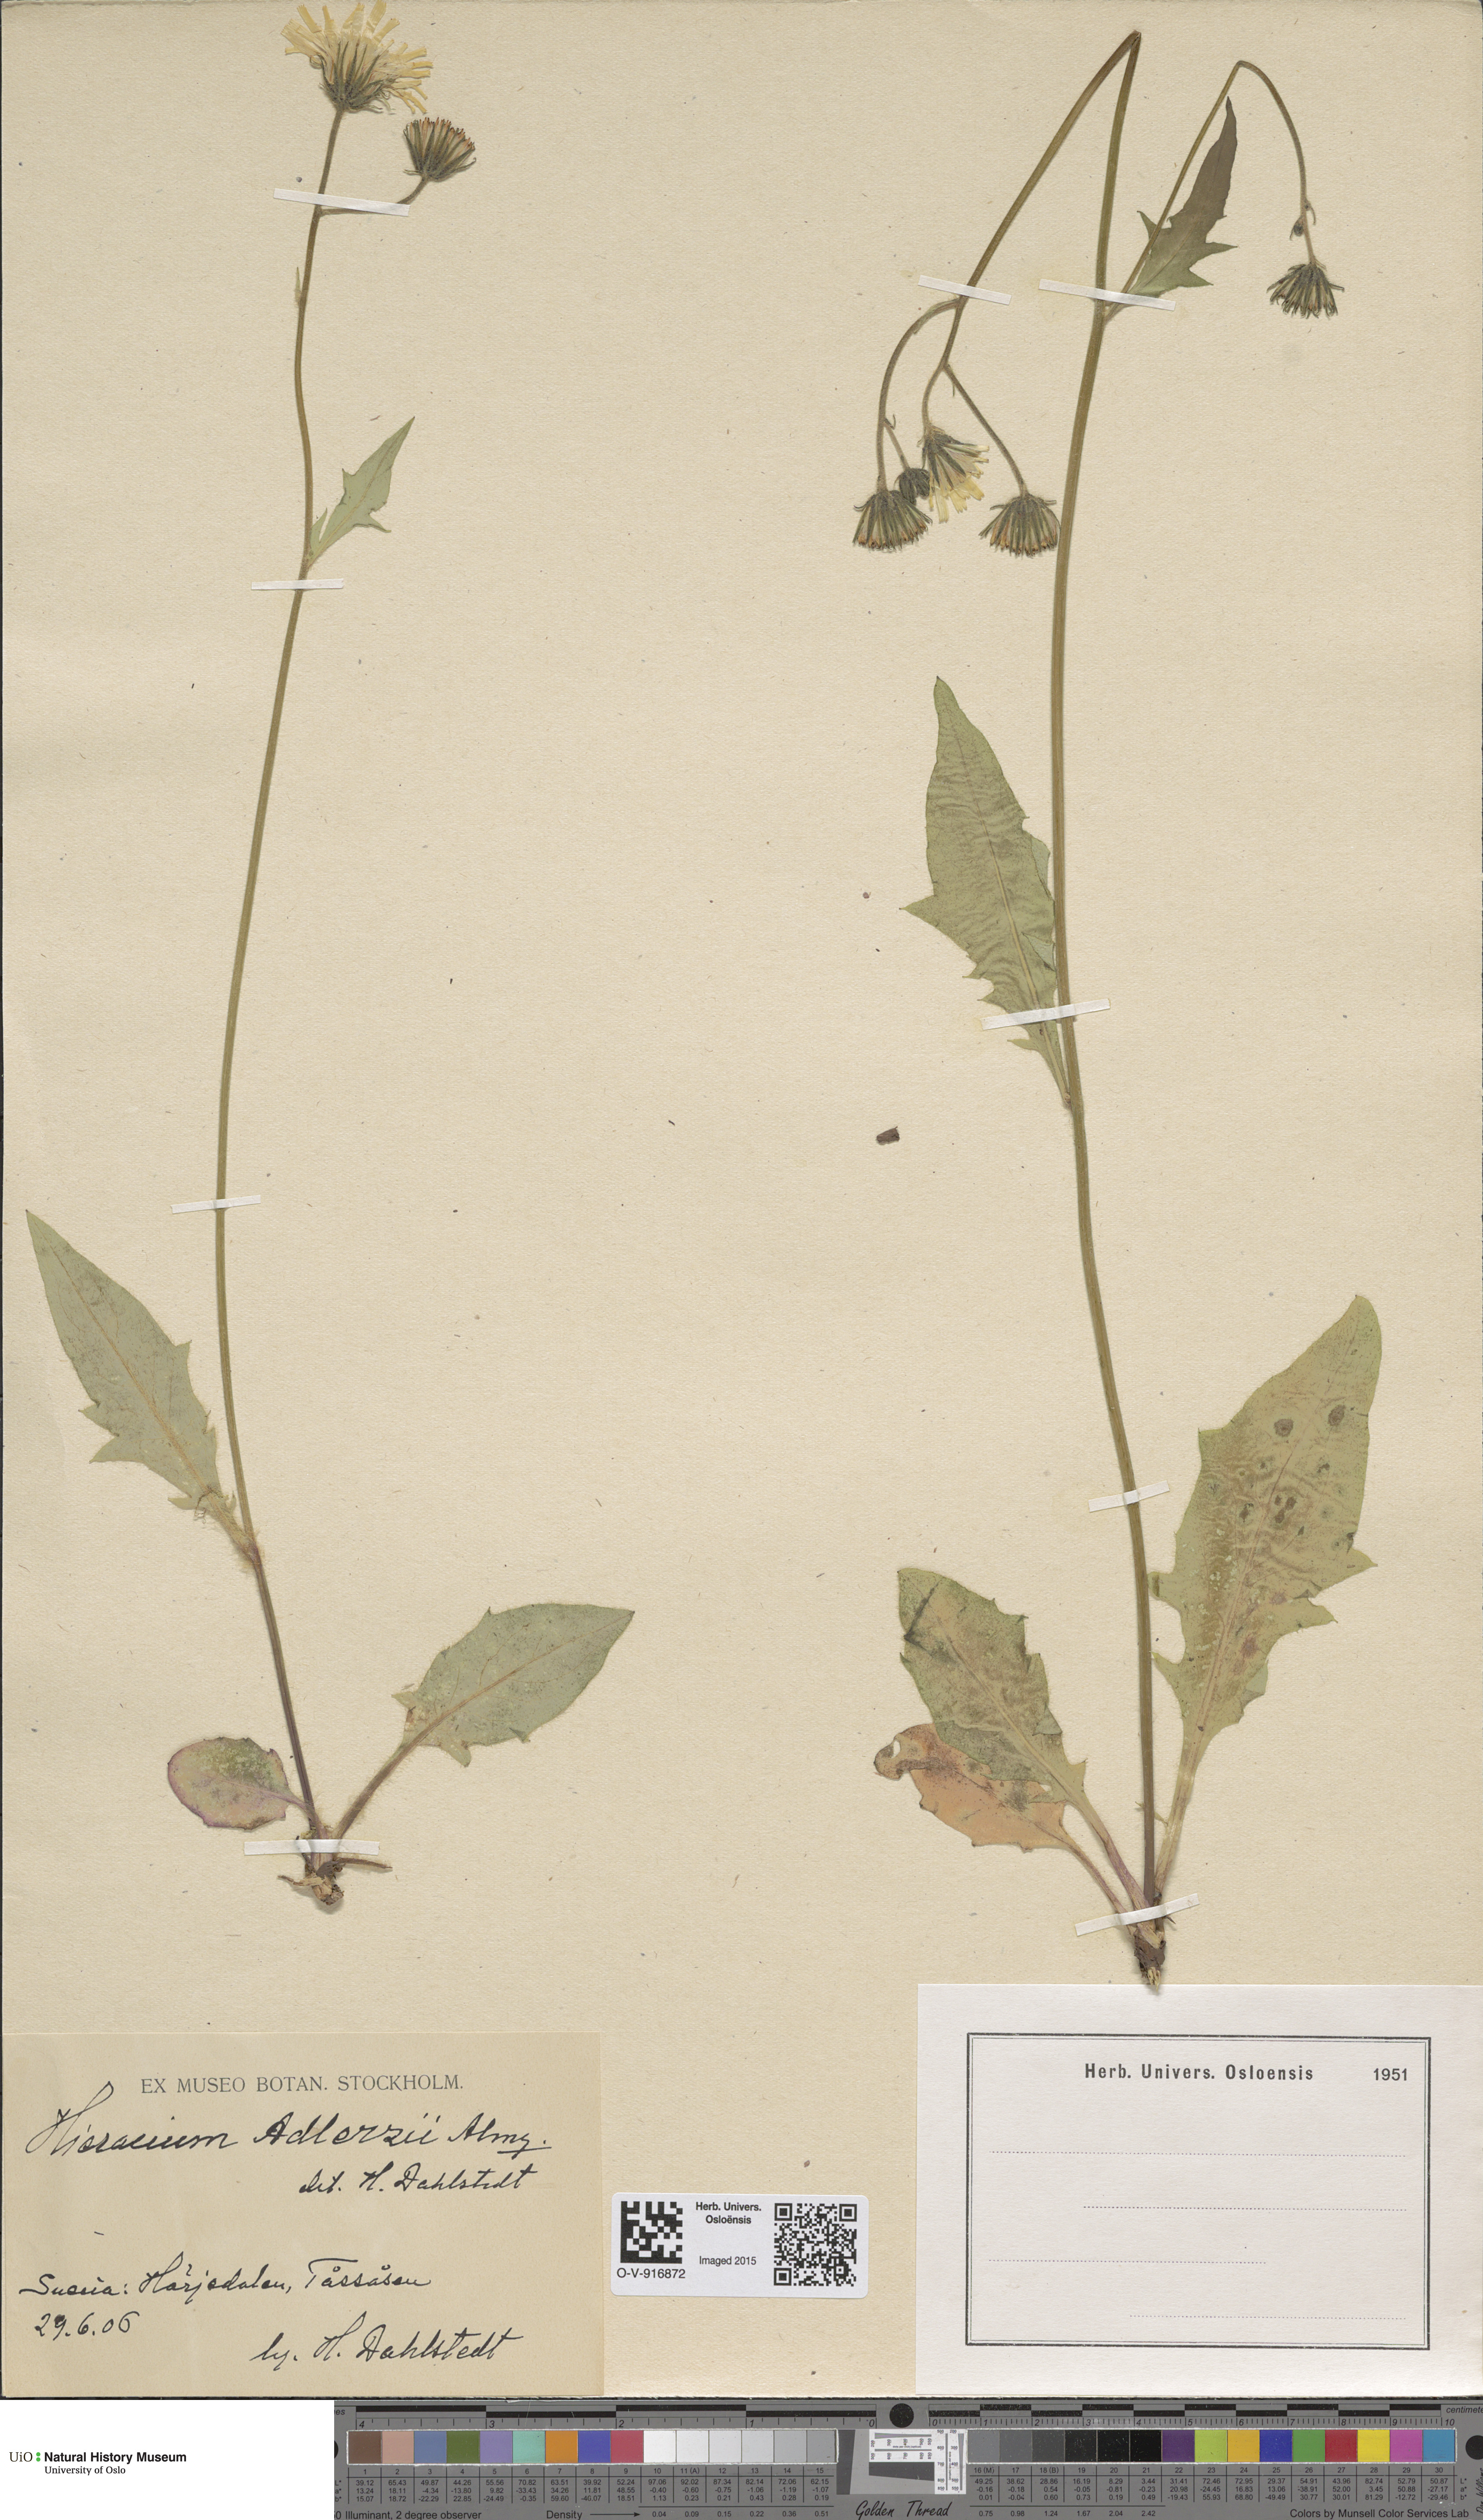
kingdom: Plantae
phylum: Tracheophyta
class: Magnoliopsida
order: Asterales
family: Asteraceae
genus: Hieracium
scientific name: Hieracium
